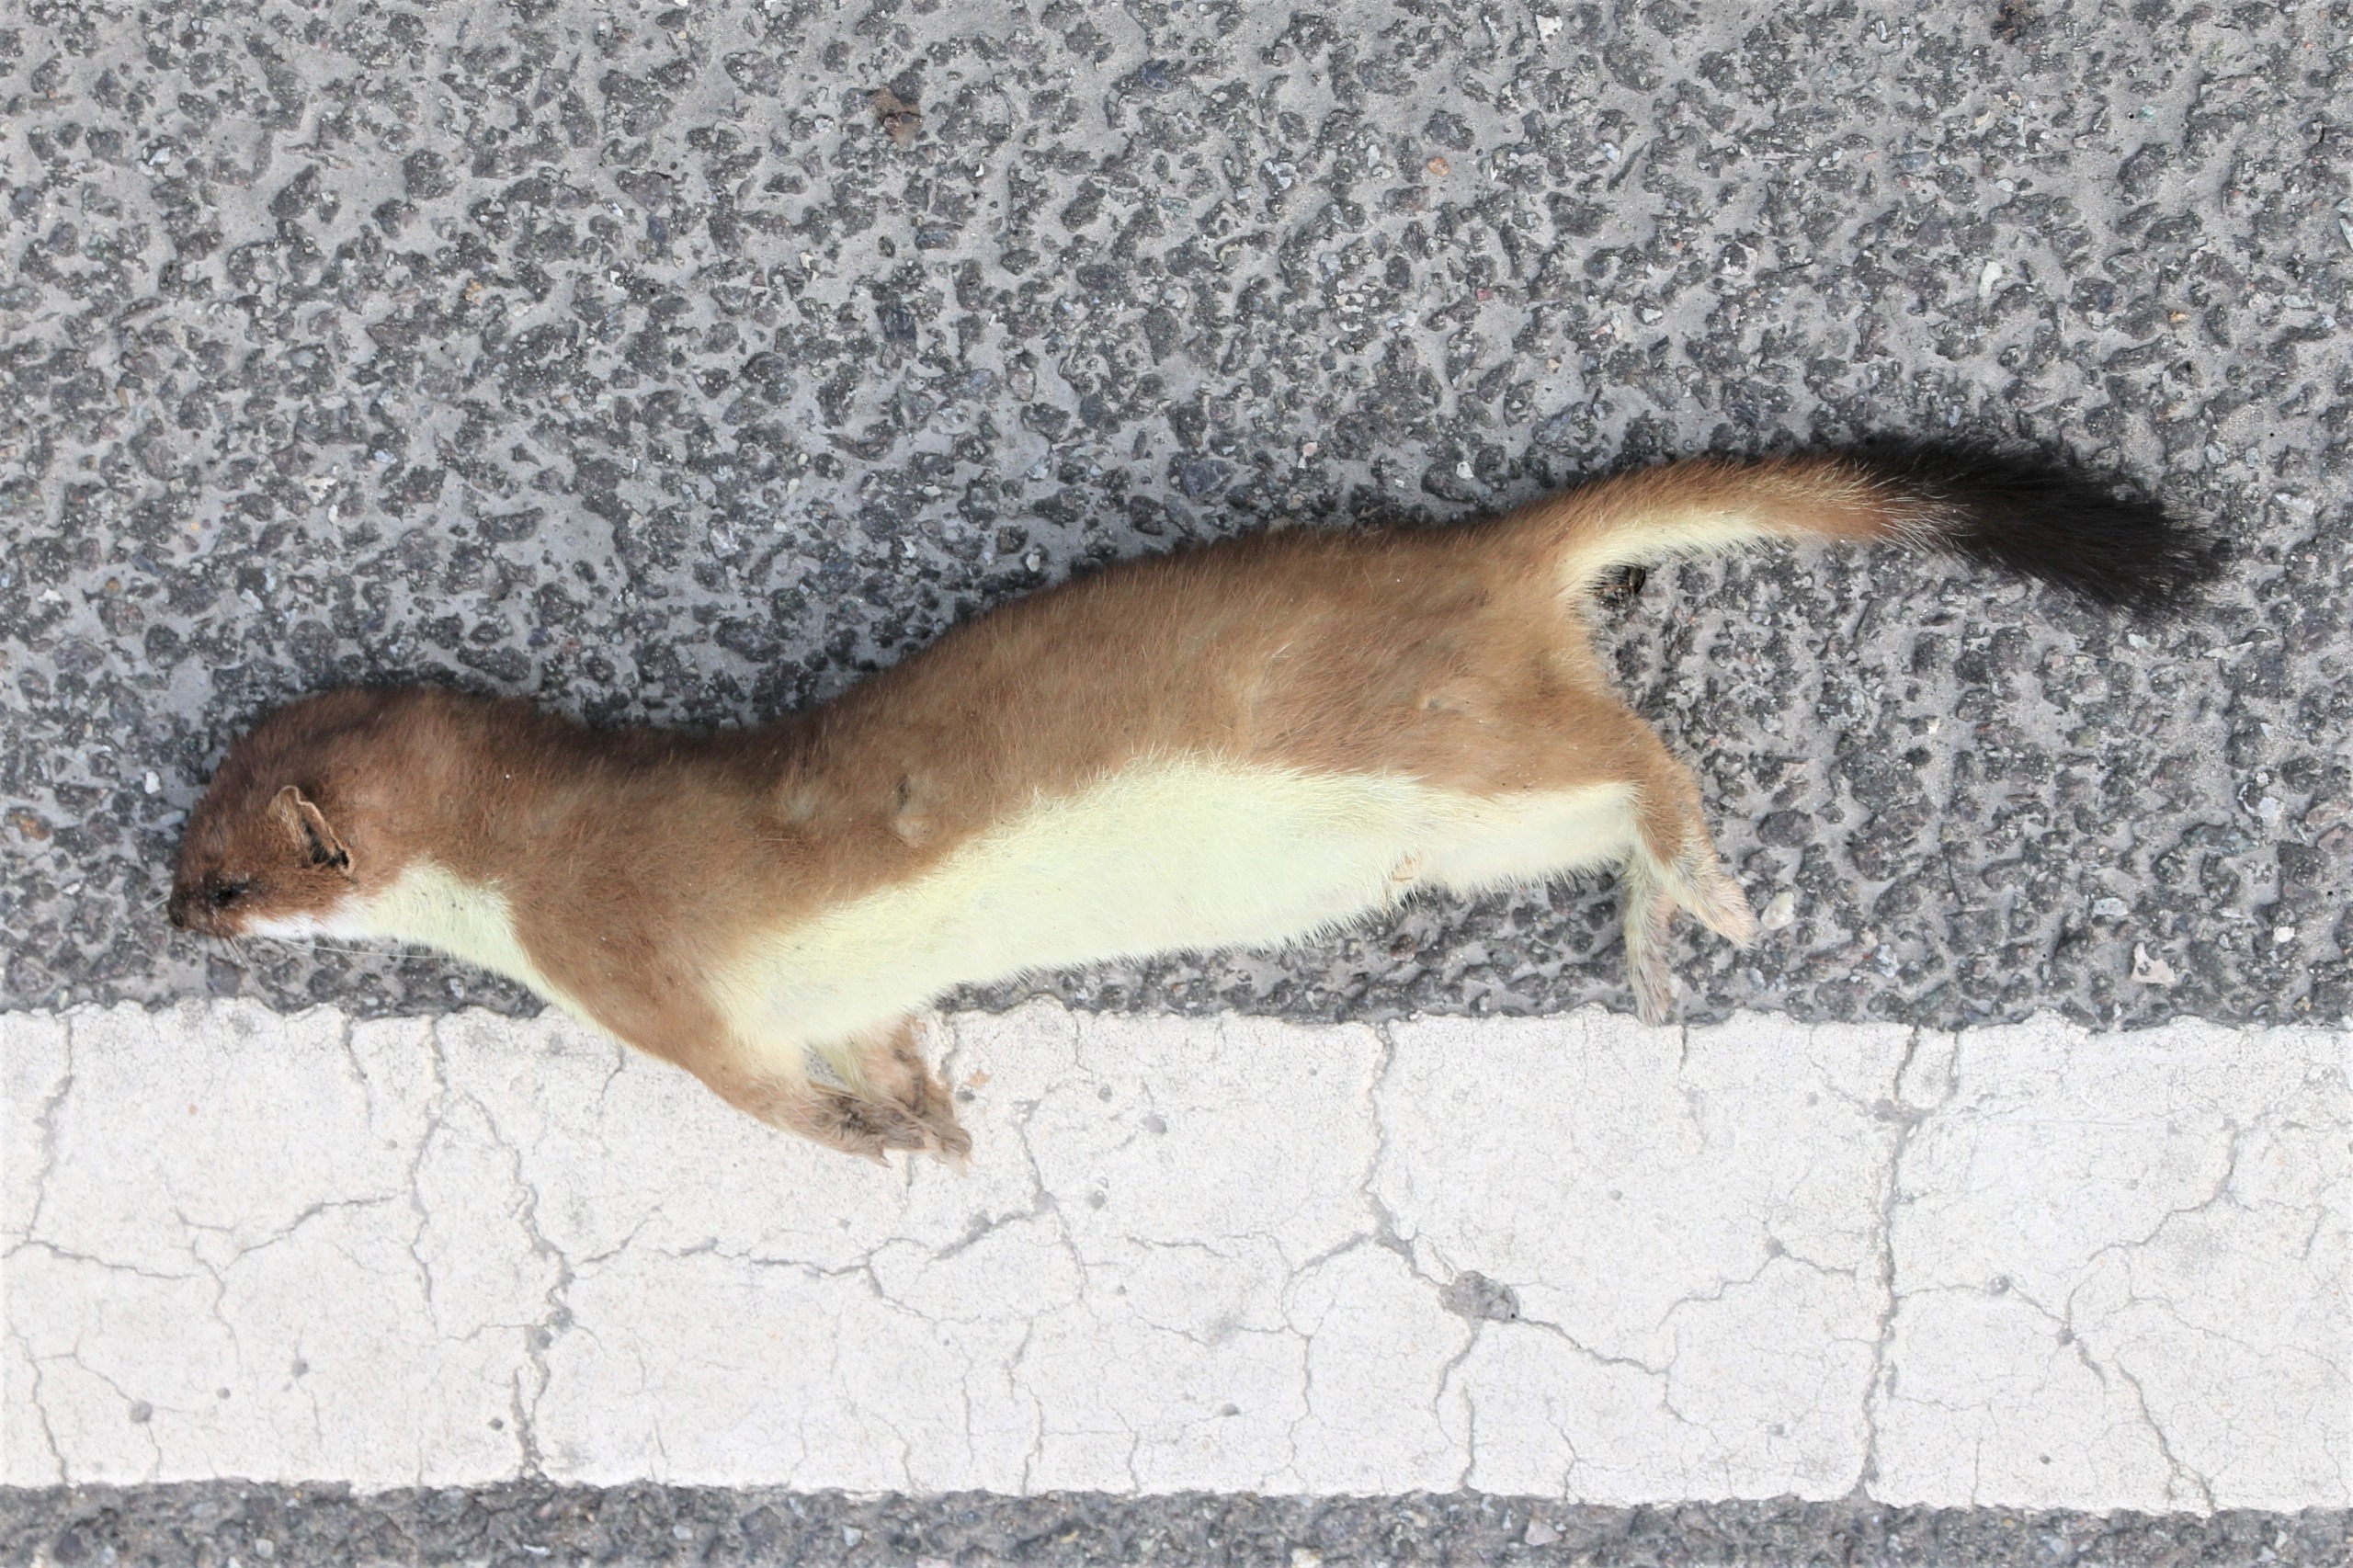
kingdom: Animalia
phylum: Chordata
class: Mammalia
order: Carnivora
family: Mustelidae
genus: Mustela
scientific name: Mustela erminea
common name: Lækat
